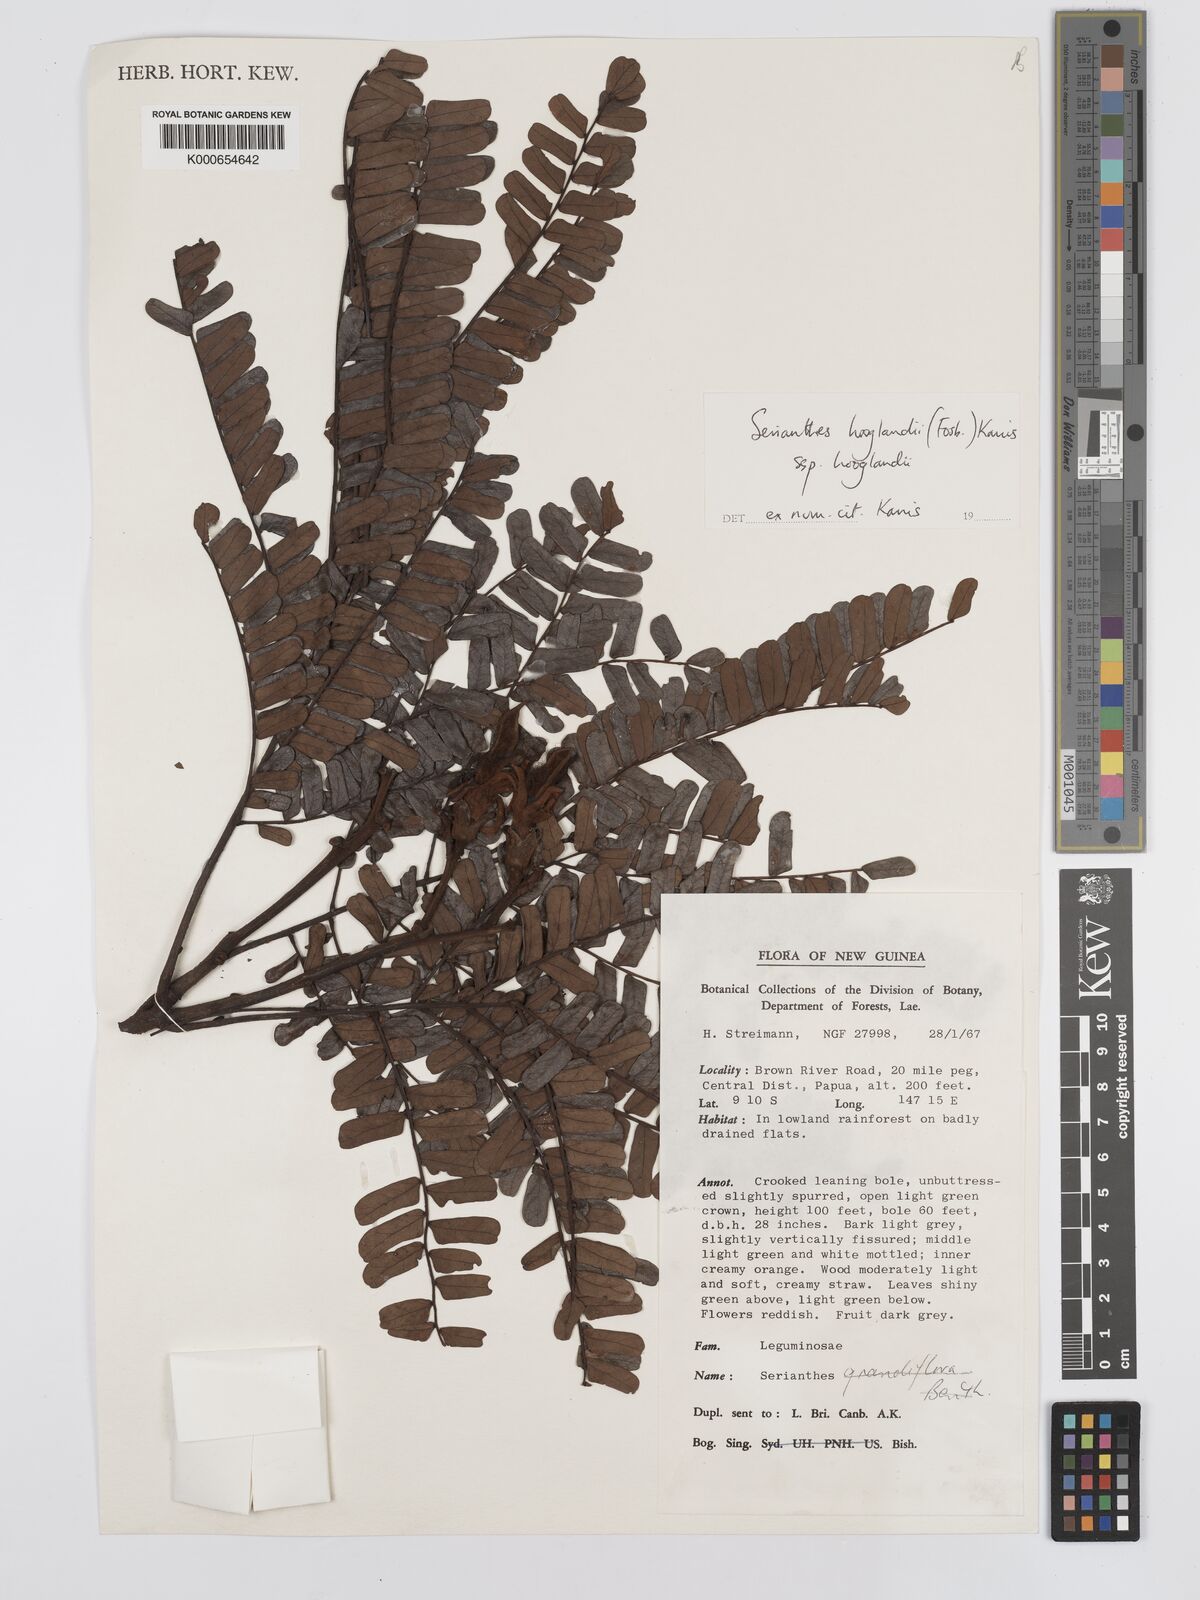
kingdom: Plantae
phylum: Tracheophyta
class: Magnoliopsida
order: Fabales
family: Fabaceae
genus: Serianthes
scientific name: Serianthes hooglandii
